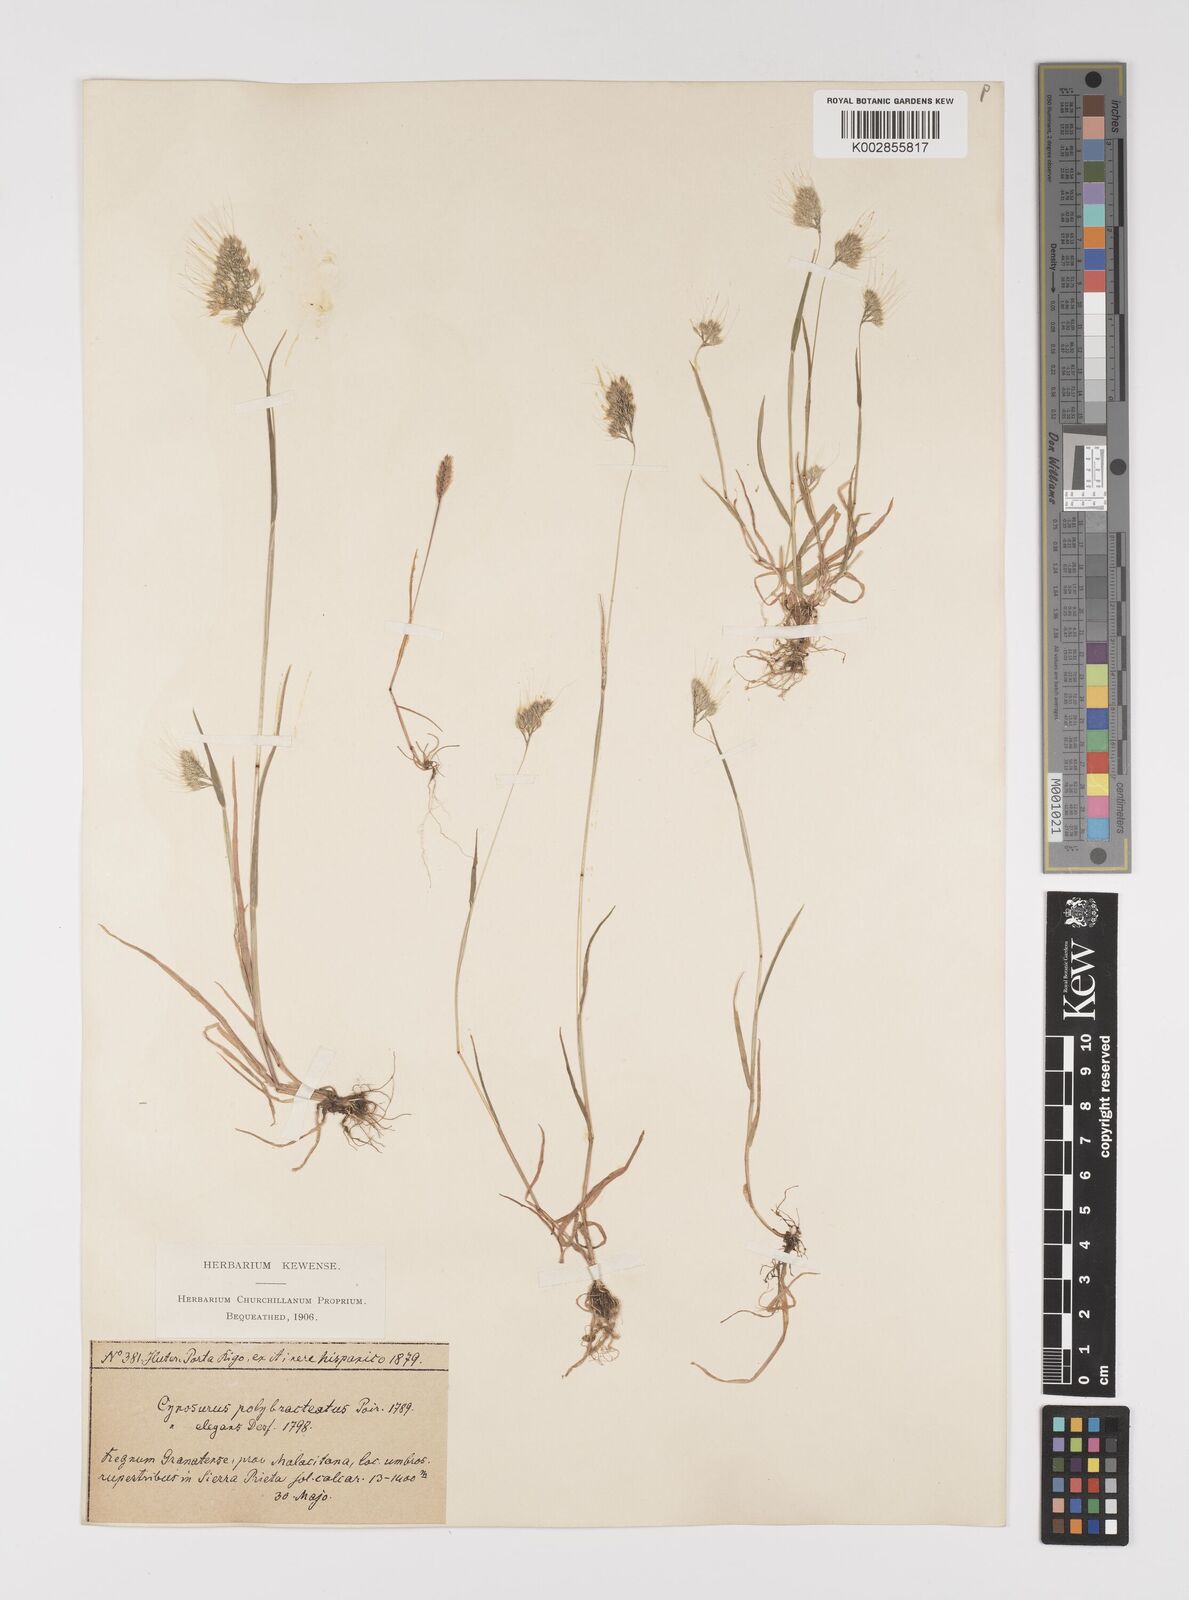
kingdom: Plantae
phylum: Tracheophyta
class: Liliopsida
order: Poales
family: Poaceae
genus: Cynosurus
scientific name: Cynosurus elegans
